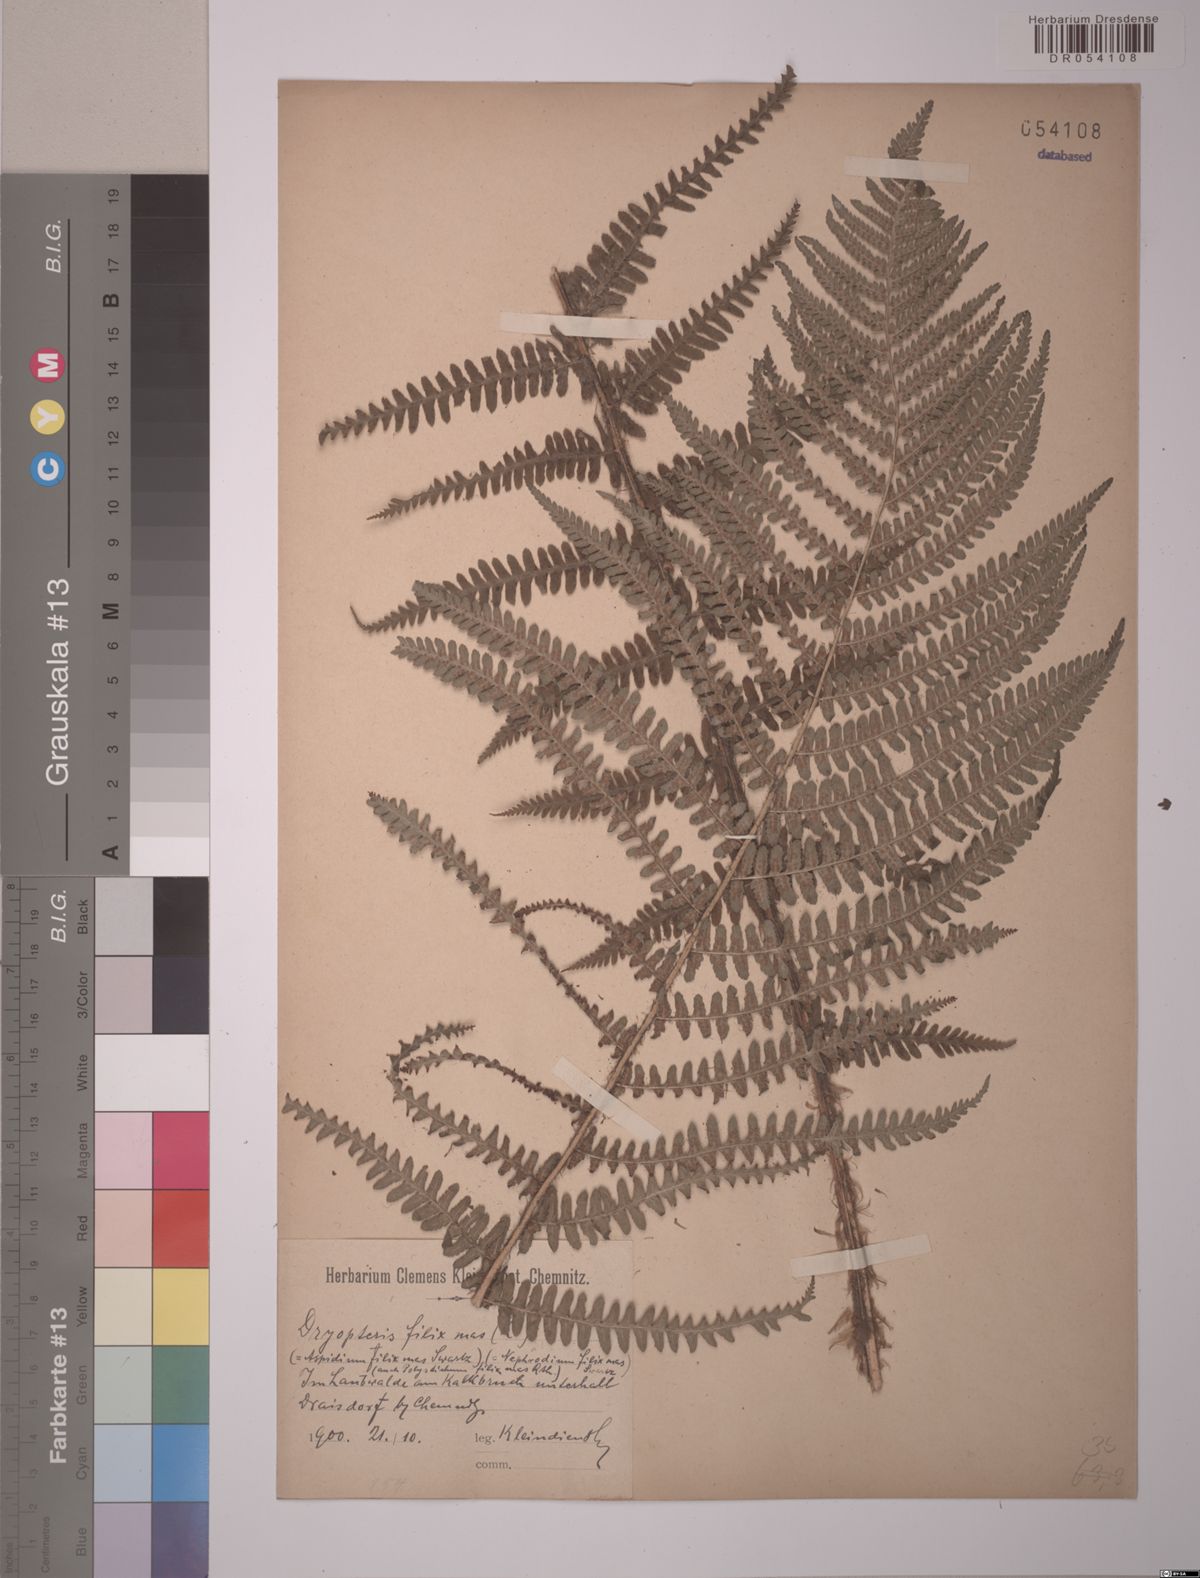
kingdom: Plantae
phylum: Tracheophyta
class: Polypodiopsida
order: Polypodiales
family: Dryopteridaceae
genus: Dryopteris
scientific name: Dryopteris filix-mas
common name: Male fern
